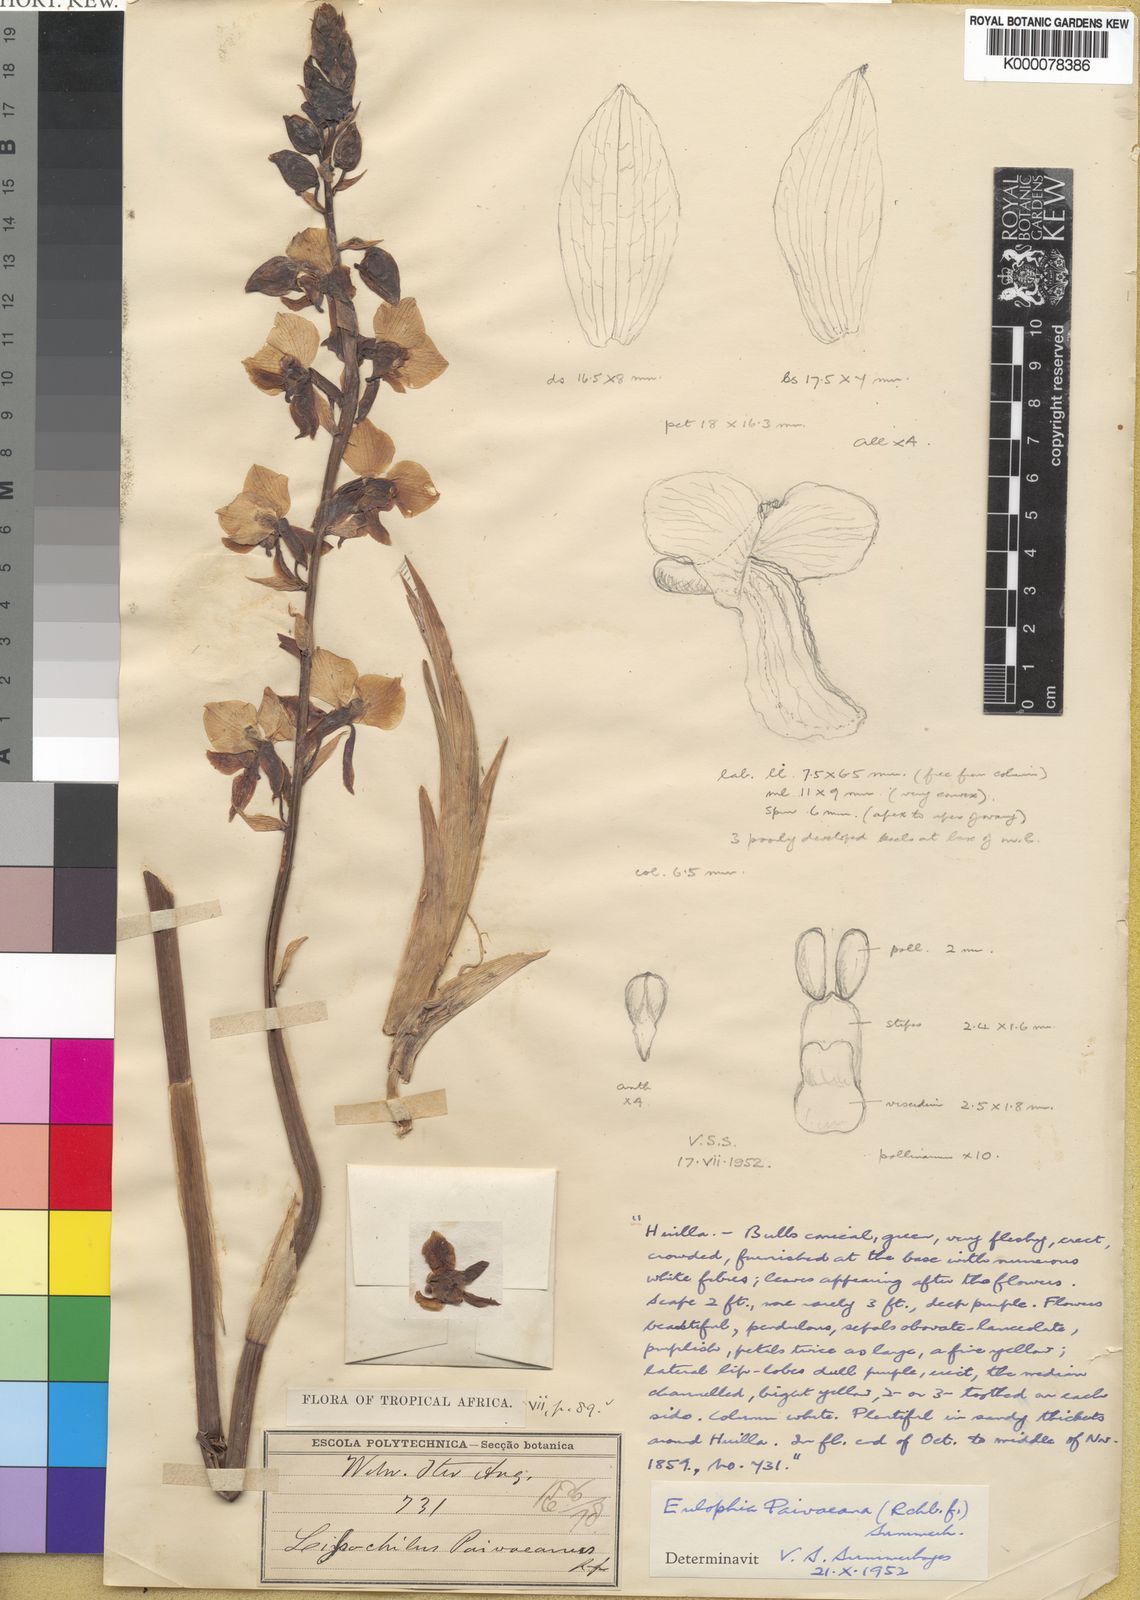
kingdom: Plantae
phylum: Tracheophyta
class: Liliopsida
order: Asparagales
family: Orchidaceae
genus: Eulophia
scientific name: Eulophia streptopetala
